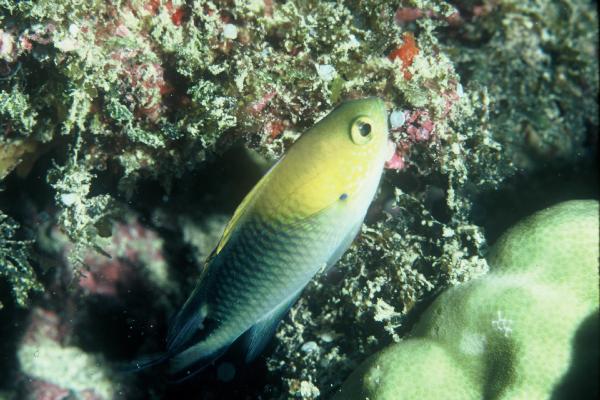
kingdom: Animalia
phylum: Chordata
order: Perciformes
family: Pomacentridae
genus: Pomachromis
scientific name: Pomachromis richardsoni
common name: Richardson's damsel
